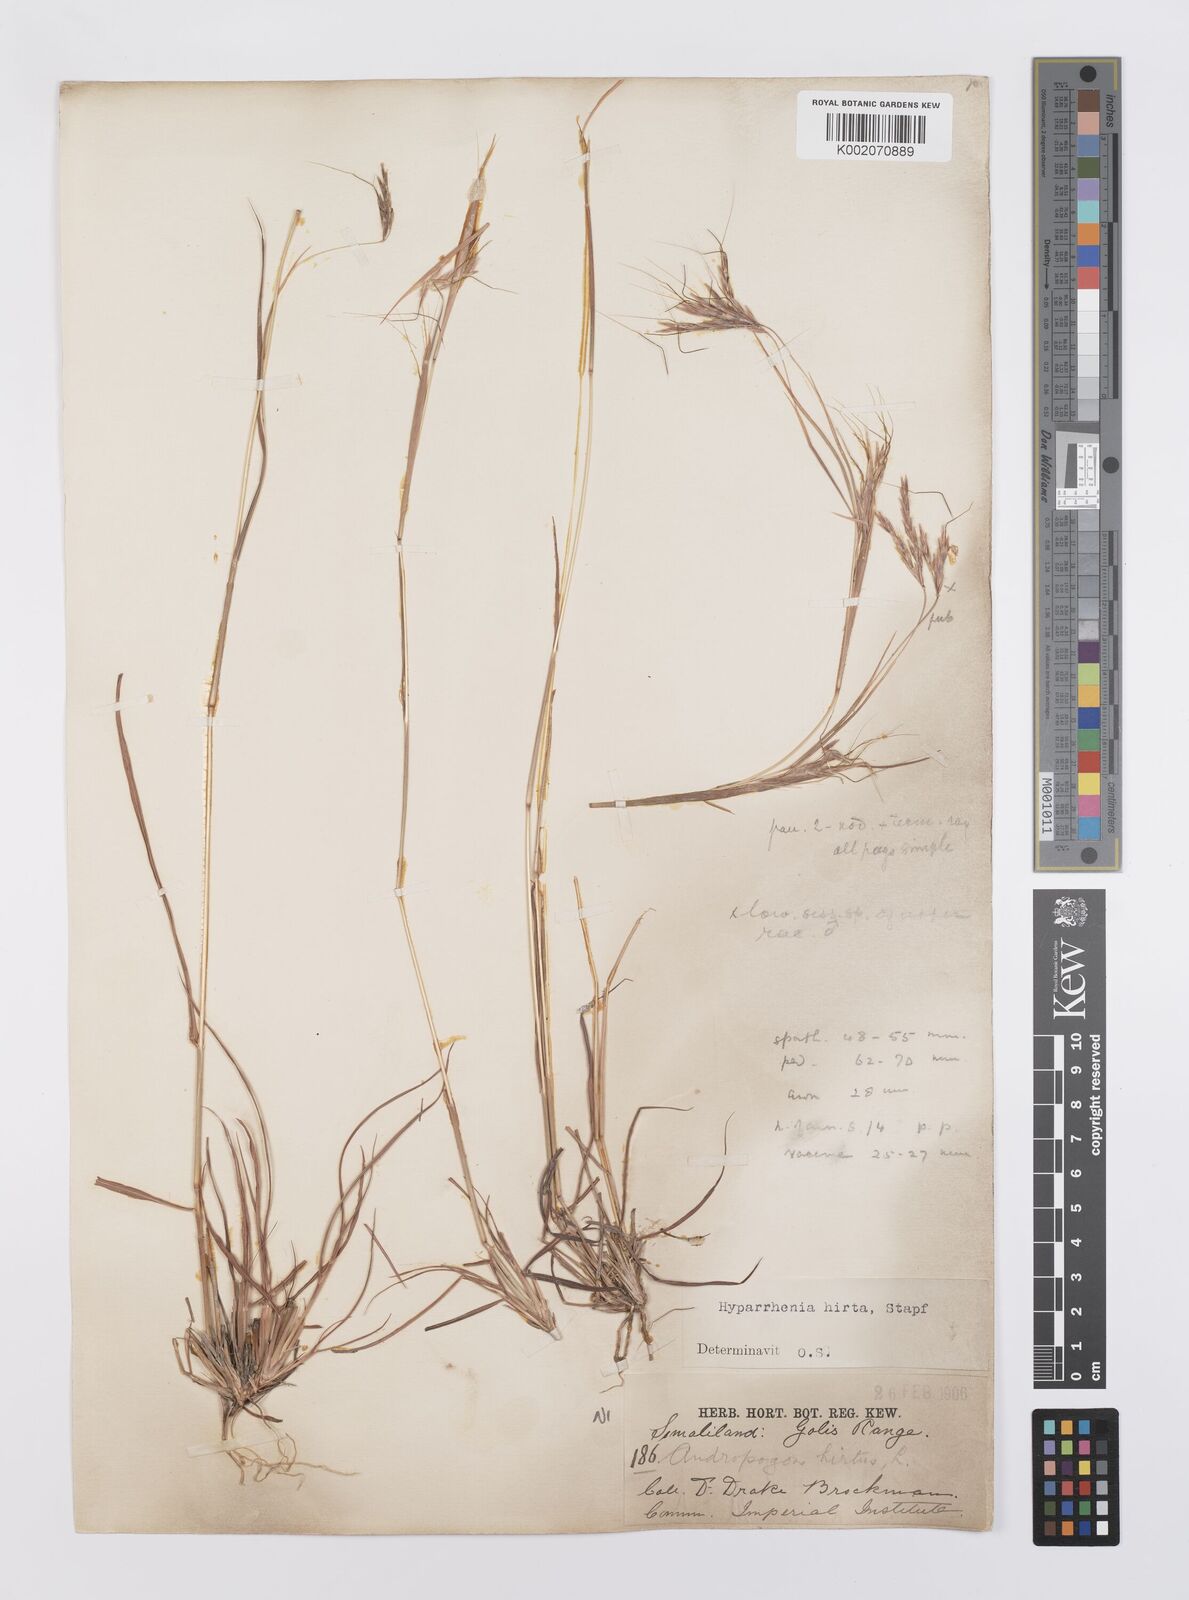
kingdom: Plantae
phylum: Tracheophyta
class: Liliopsida
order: Poales
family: Poaceae
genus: Hyparrhenia
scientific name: Hyparrhenia hirta
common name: Thatching grass
